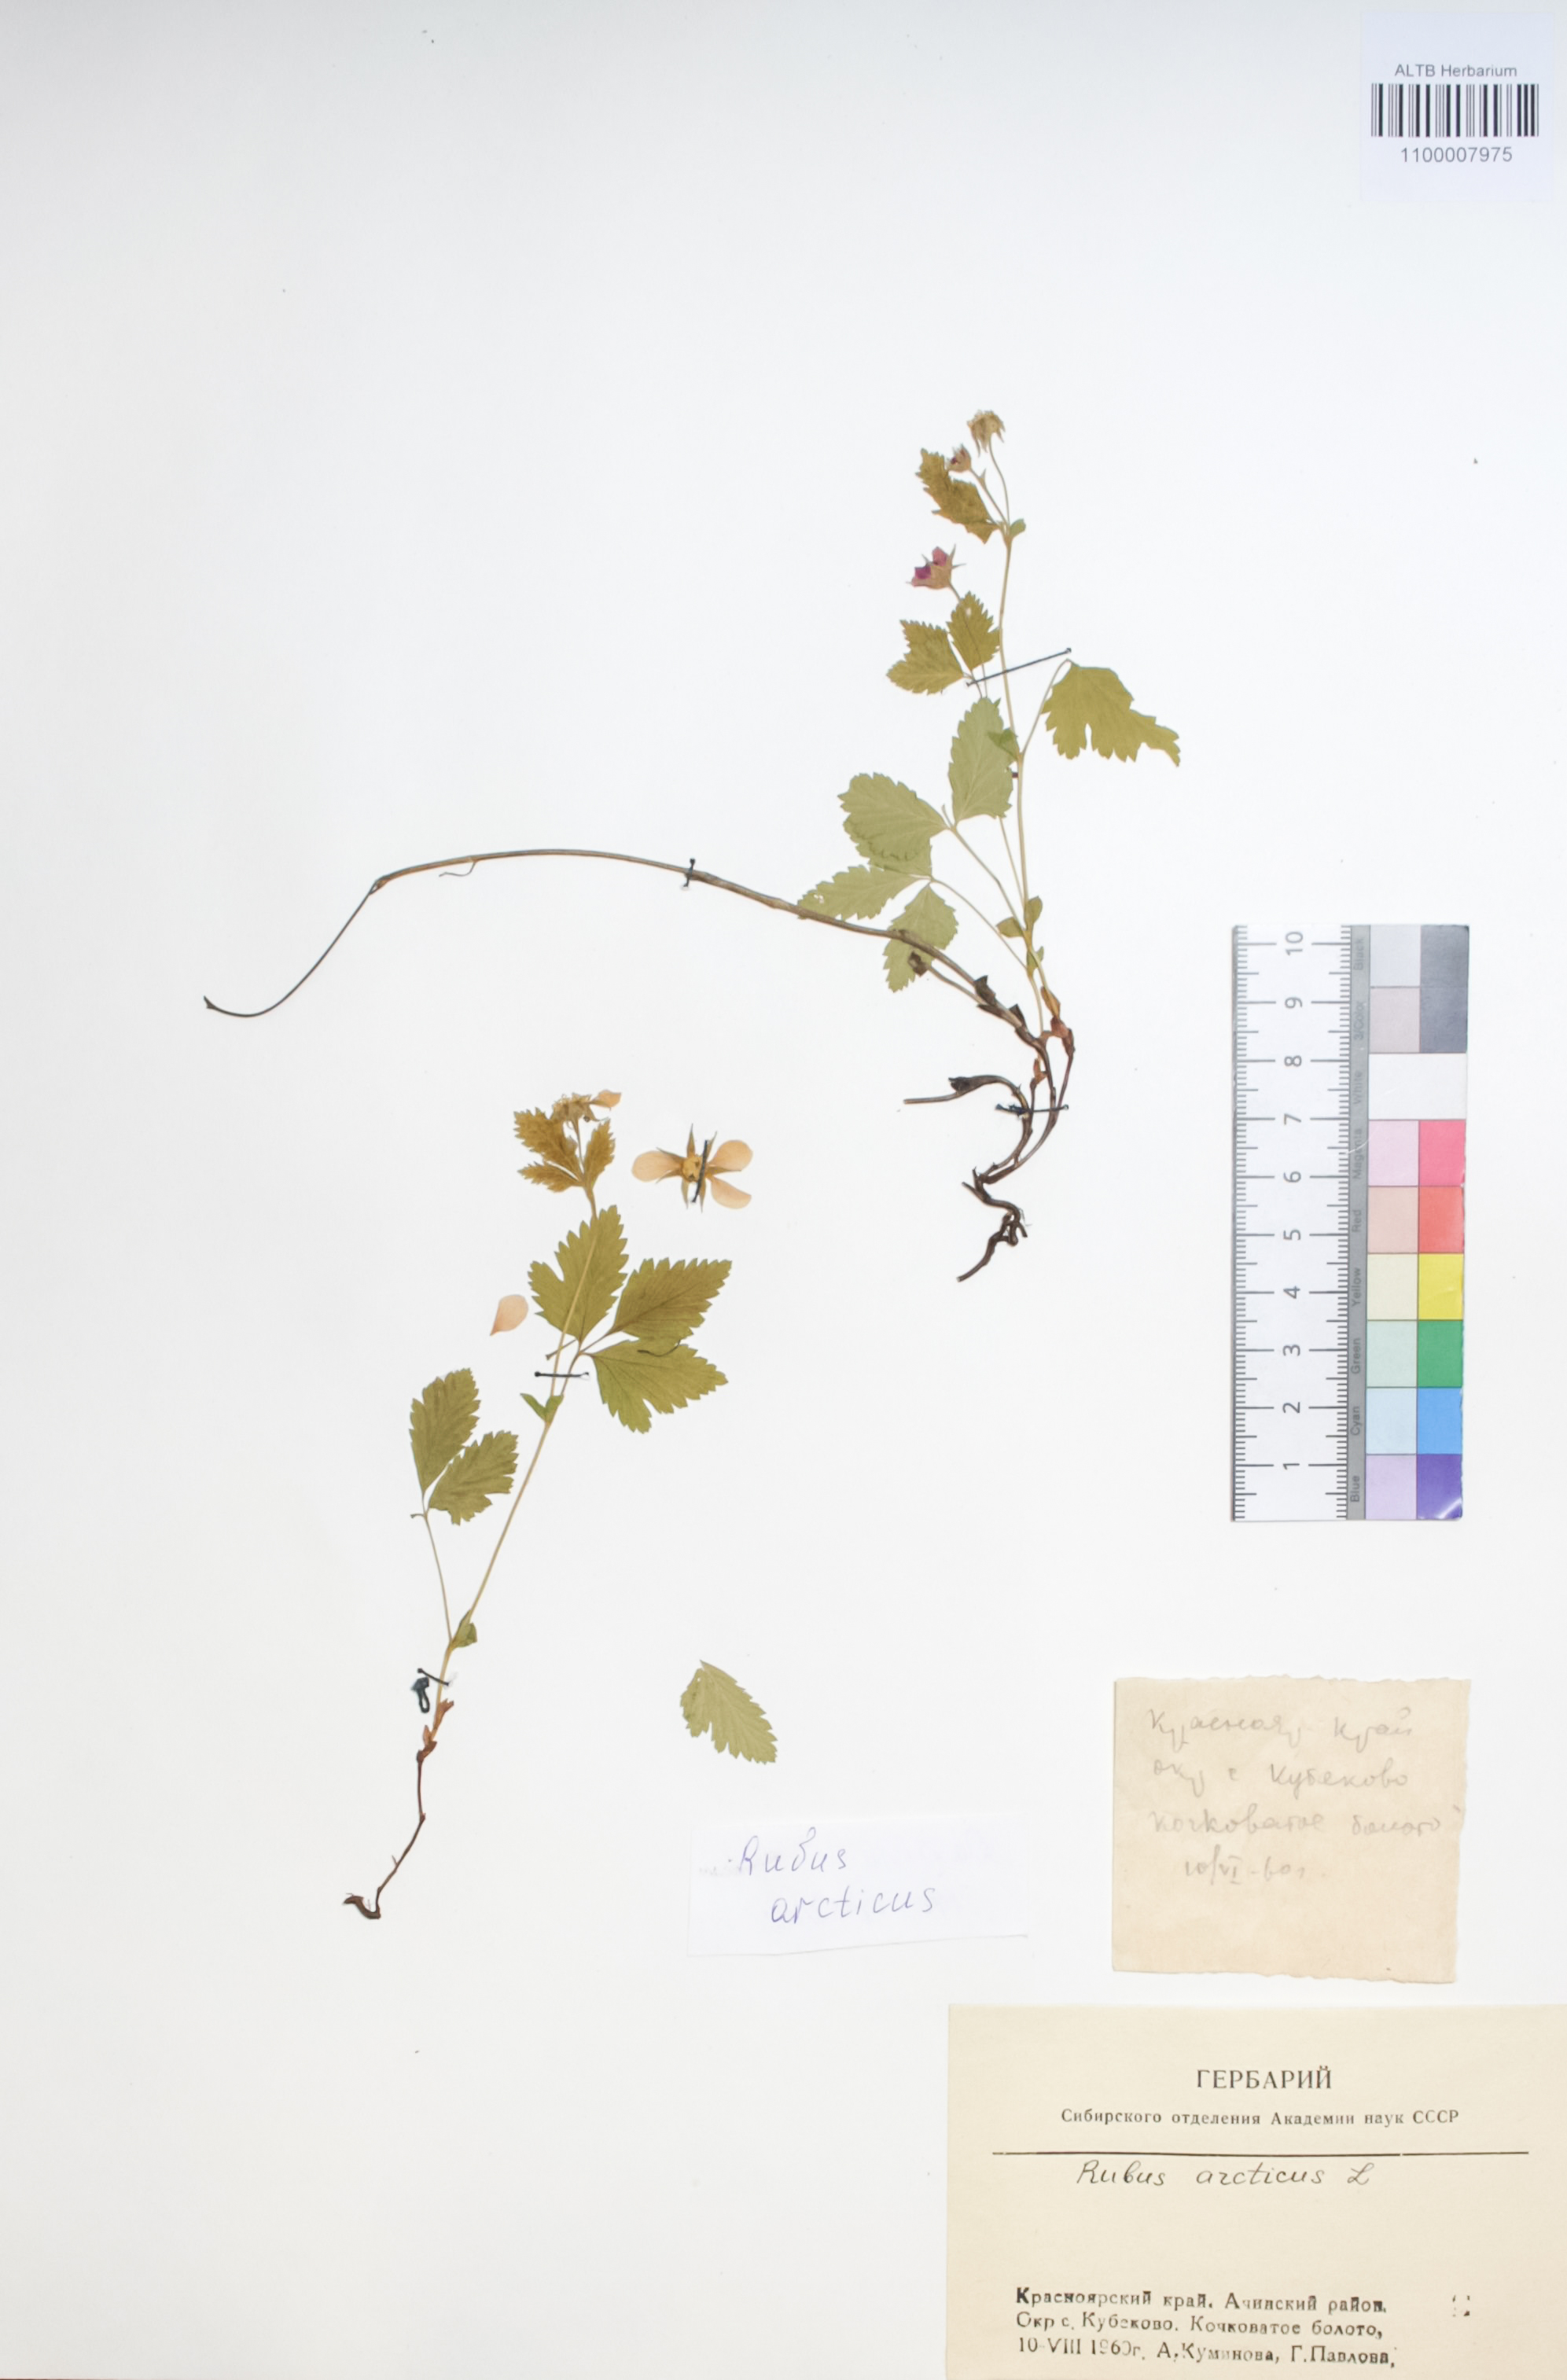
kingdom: Plantae
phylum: Tracheophyta
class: Magnoliopsida
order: Rosales
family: Rosaceae
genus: Rubus
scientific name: Rubus arcticus
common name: Arctic bramble
